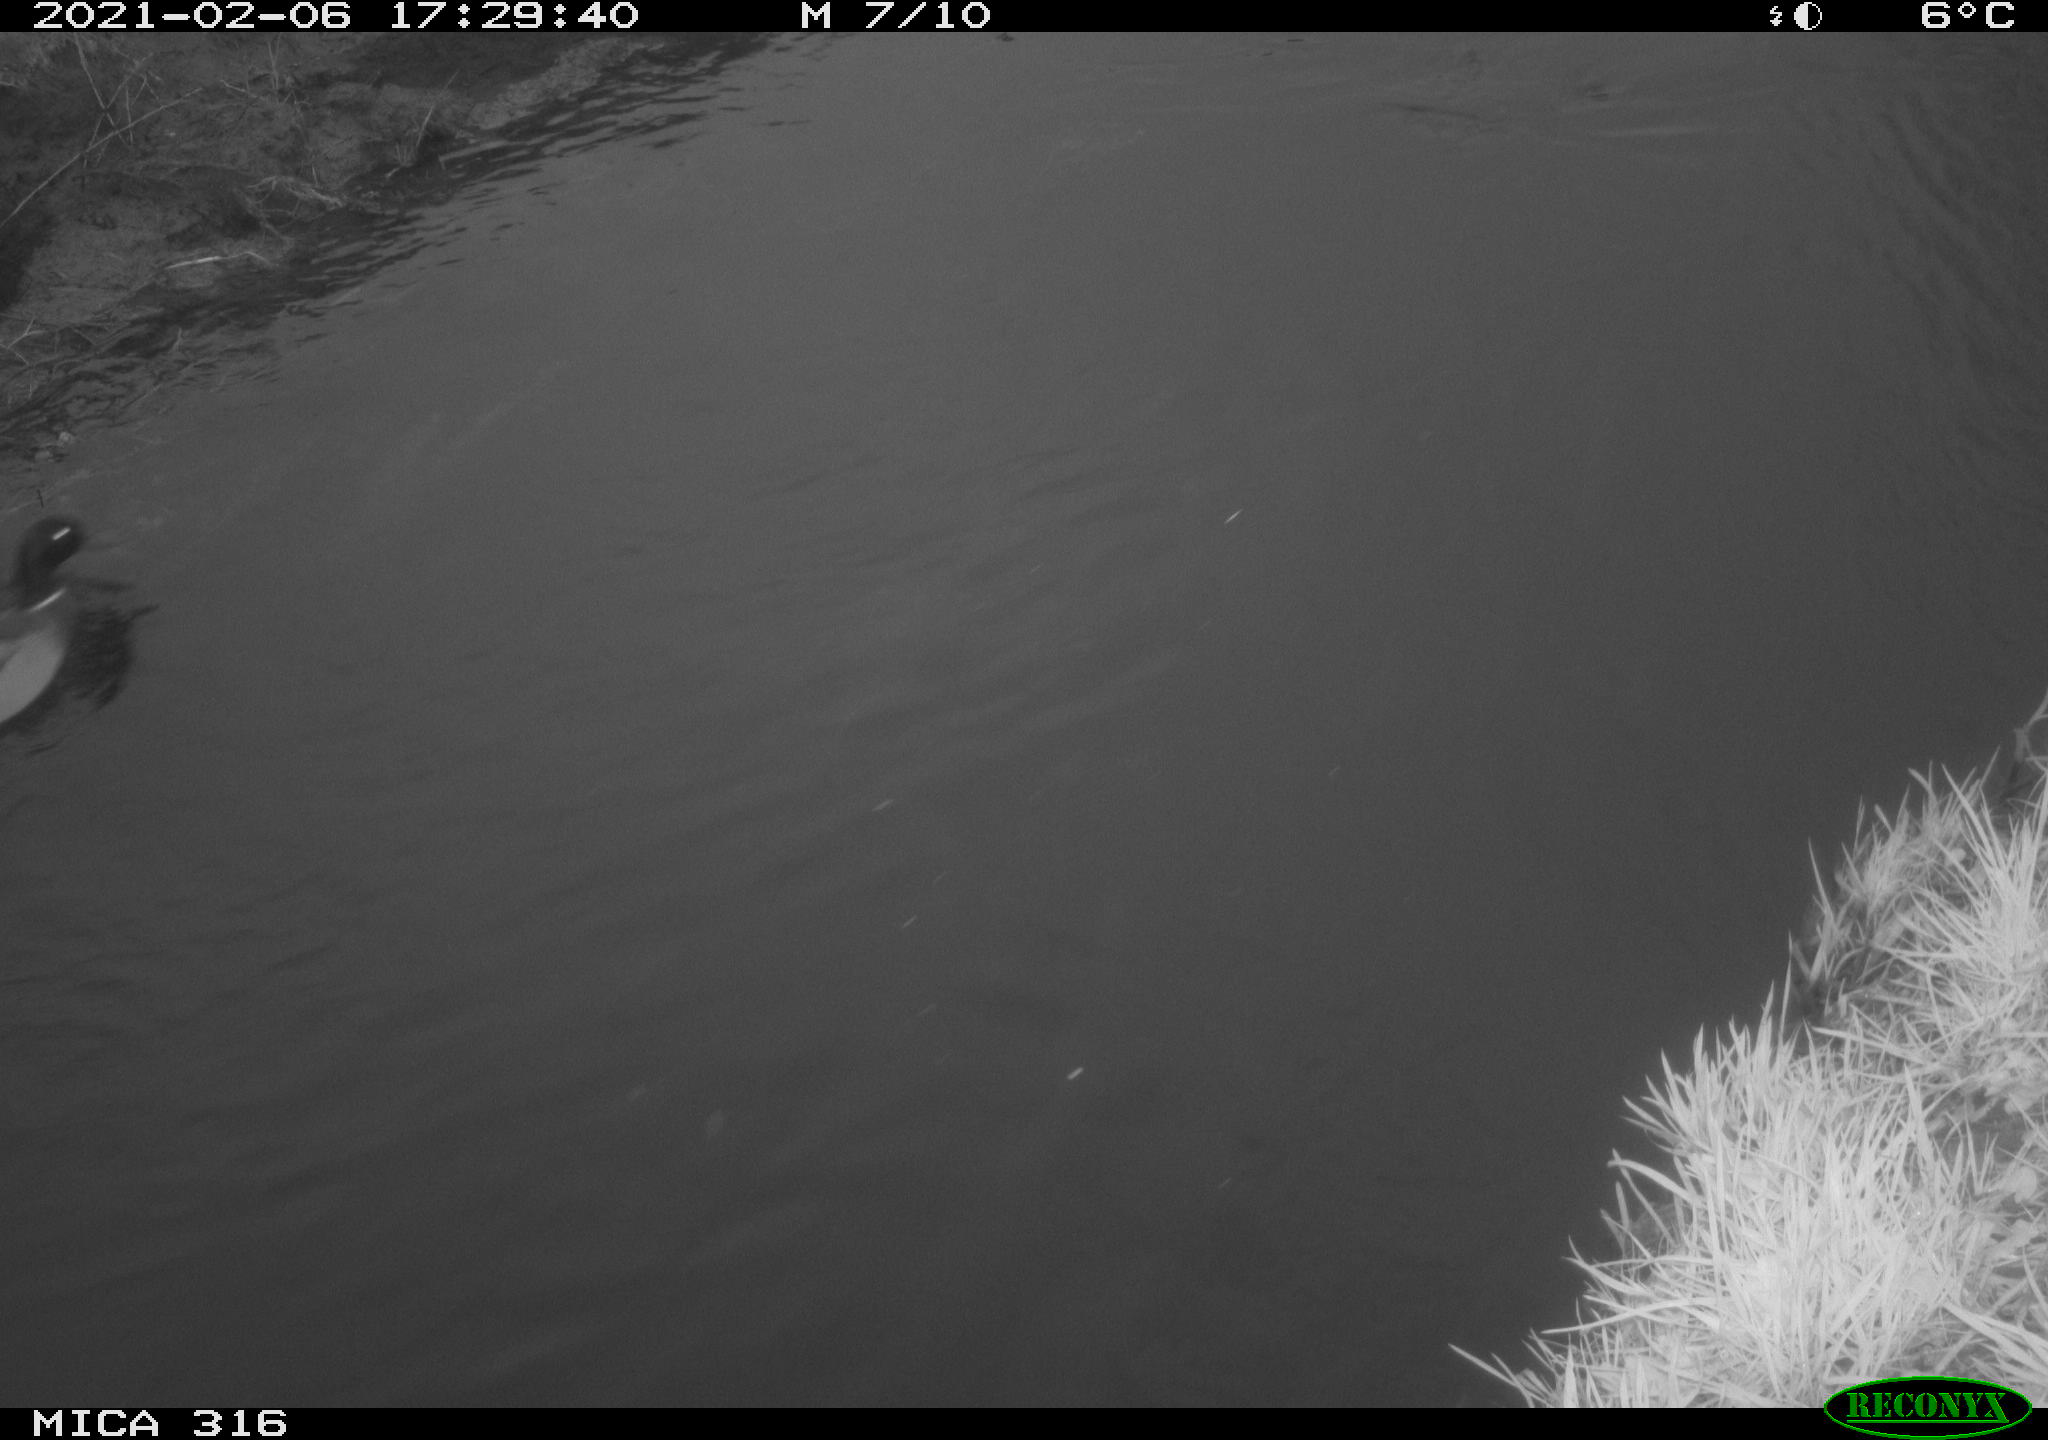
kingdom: Animalia
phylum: Chordata
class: Aves
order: Anseriformes
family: Anatidae
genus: Anas
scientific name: Anas platyrhynchos
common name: Mallard
